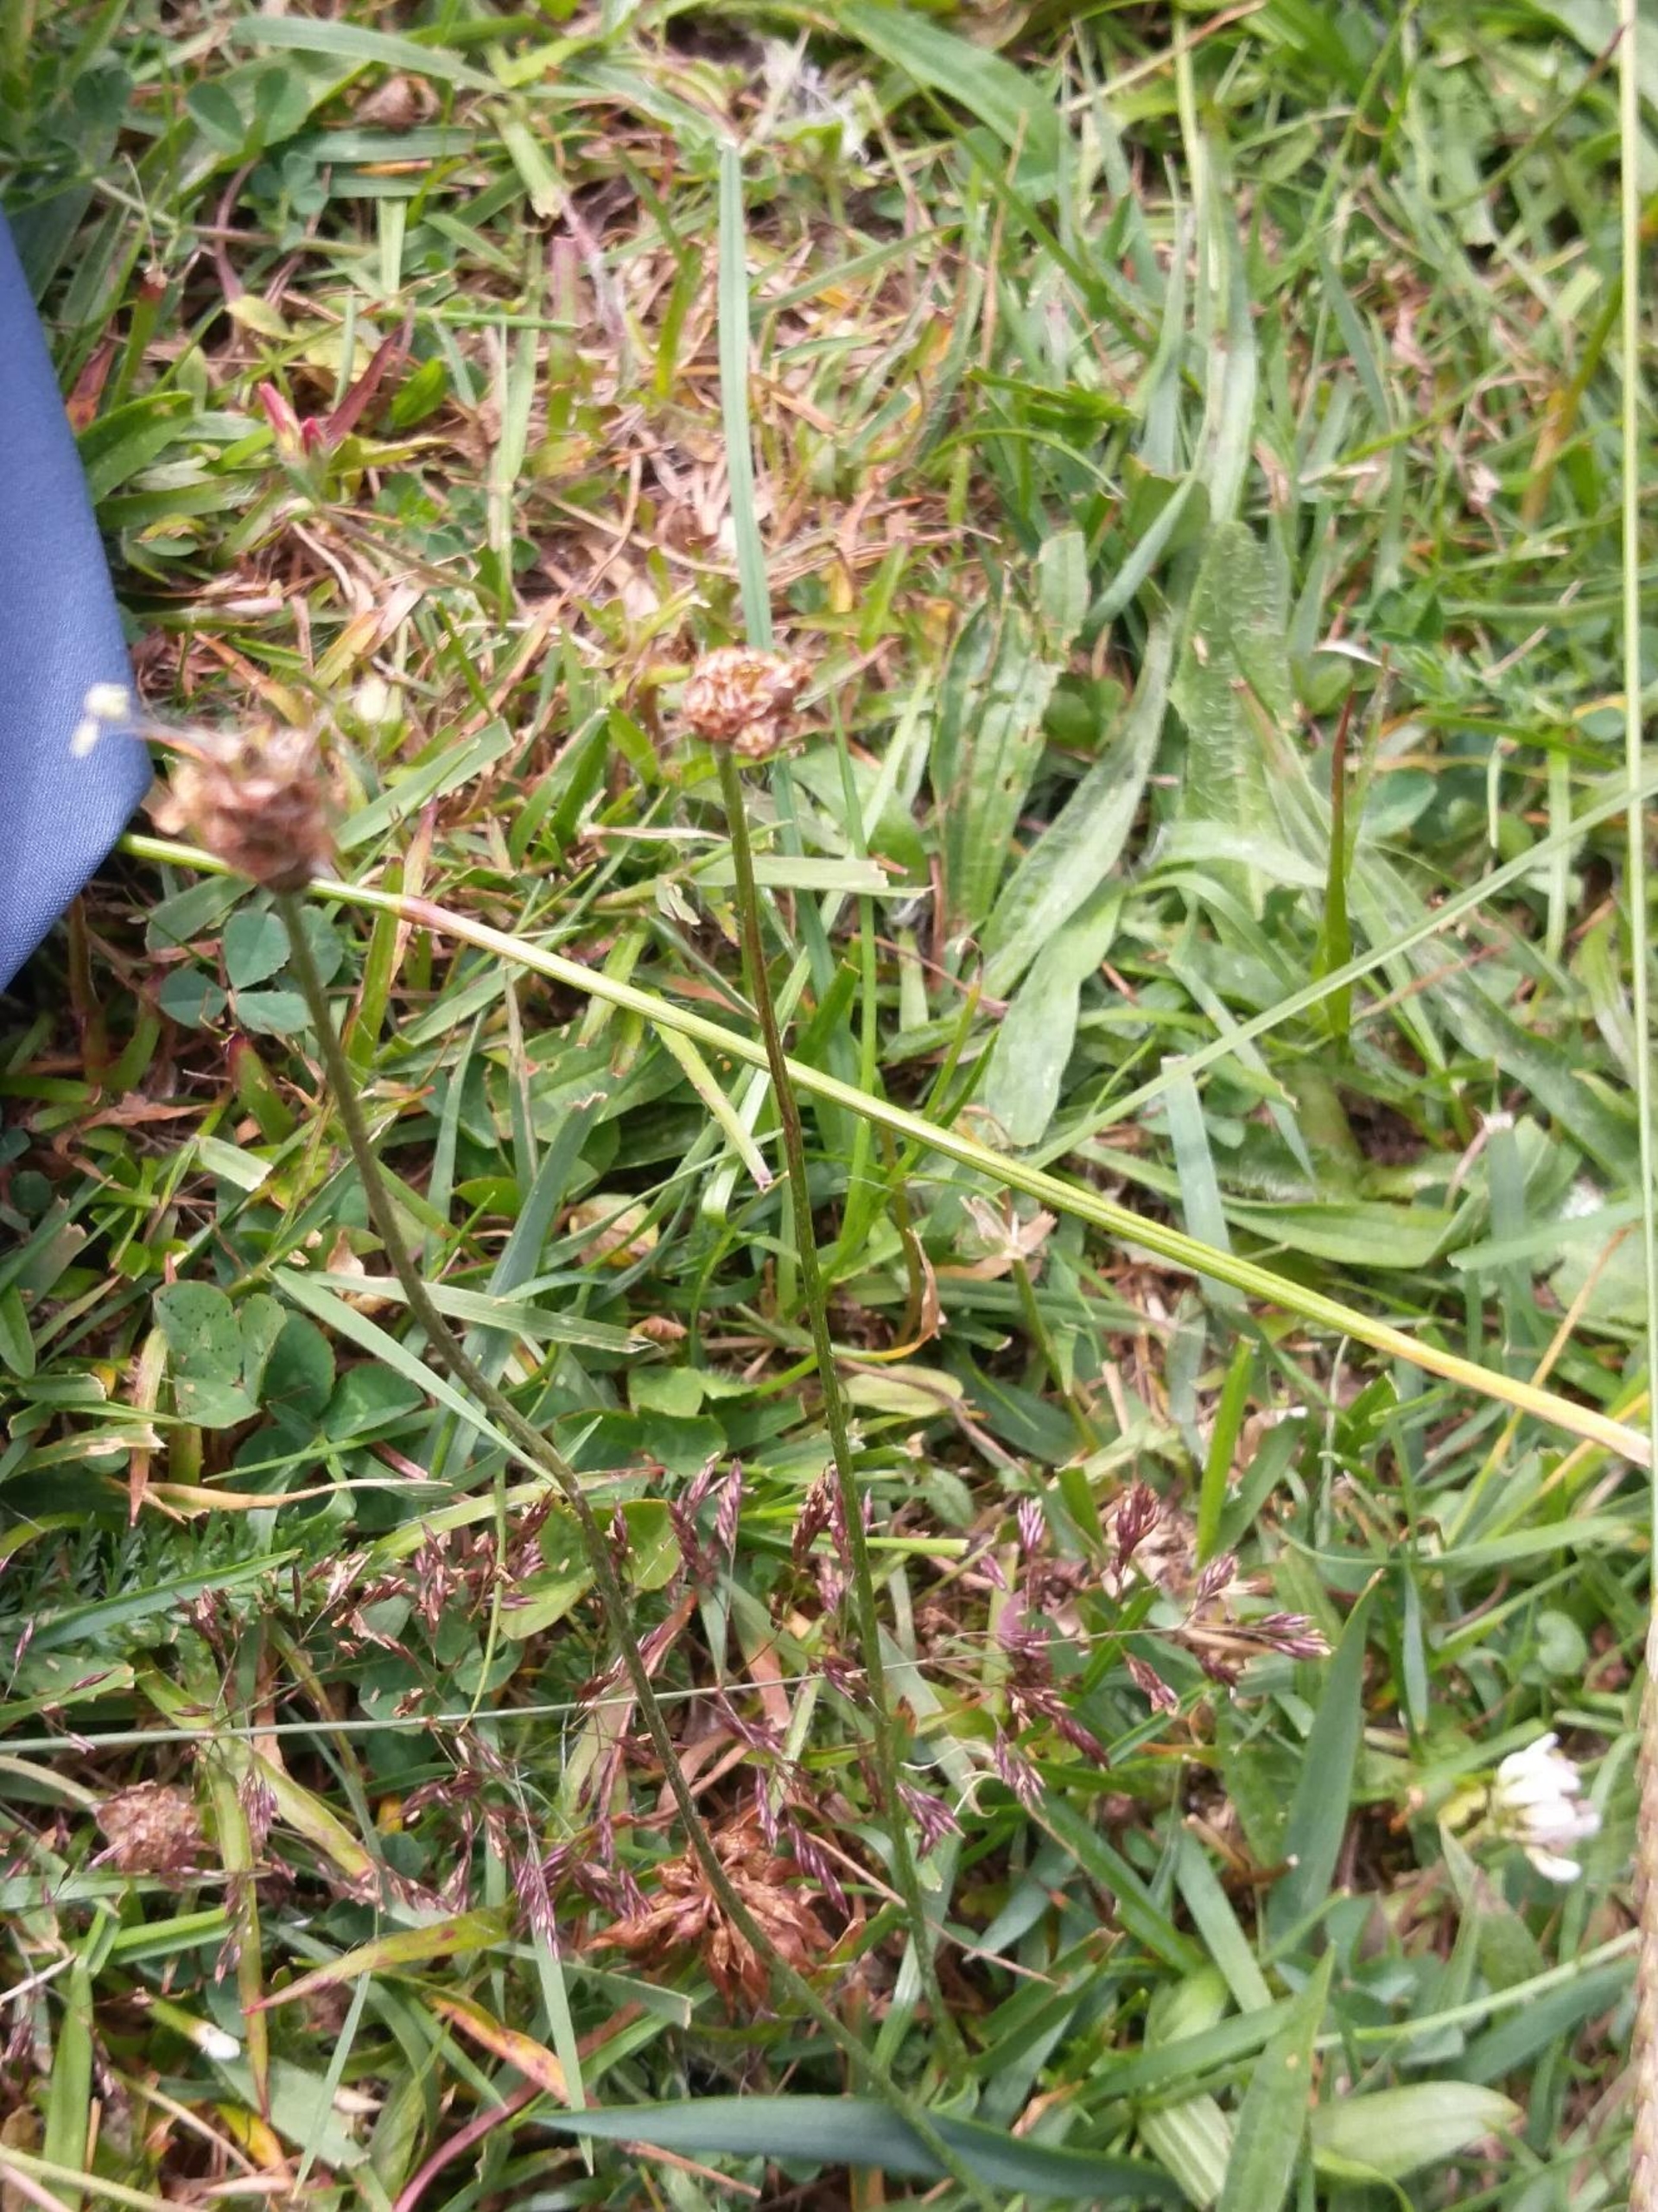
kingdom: Plantae
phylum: Tracheophyta
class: Magnoliopsida
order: Lamiales
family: Plantaginaceae
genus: Plantago
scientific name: Plantago lanceolata
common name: Lancet-vejbred
